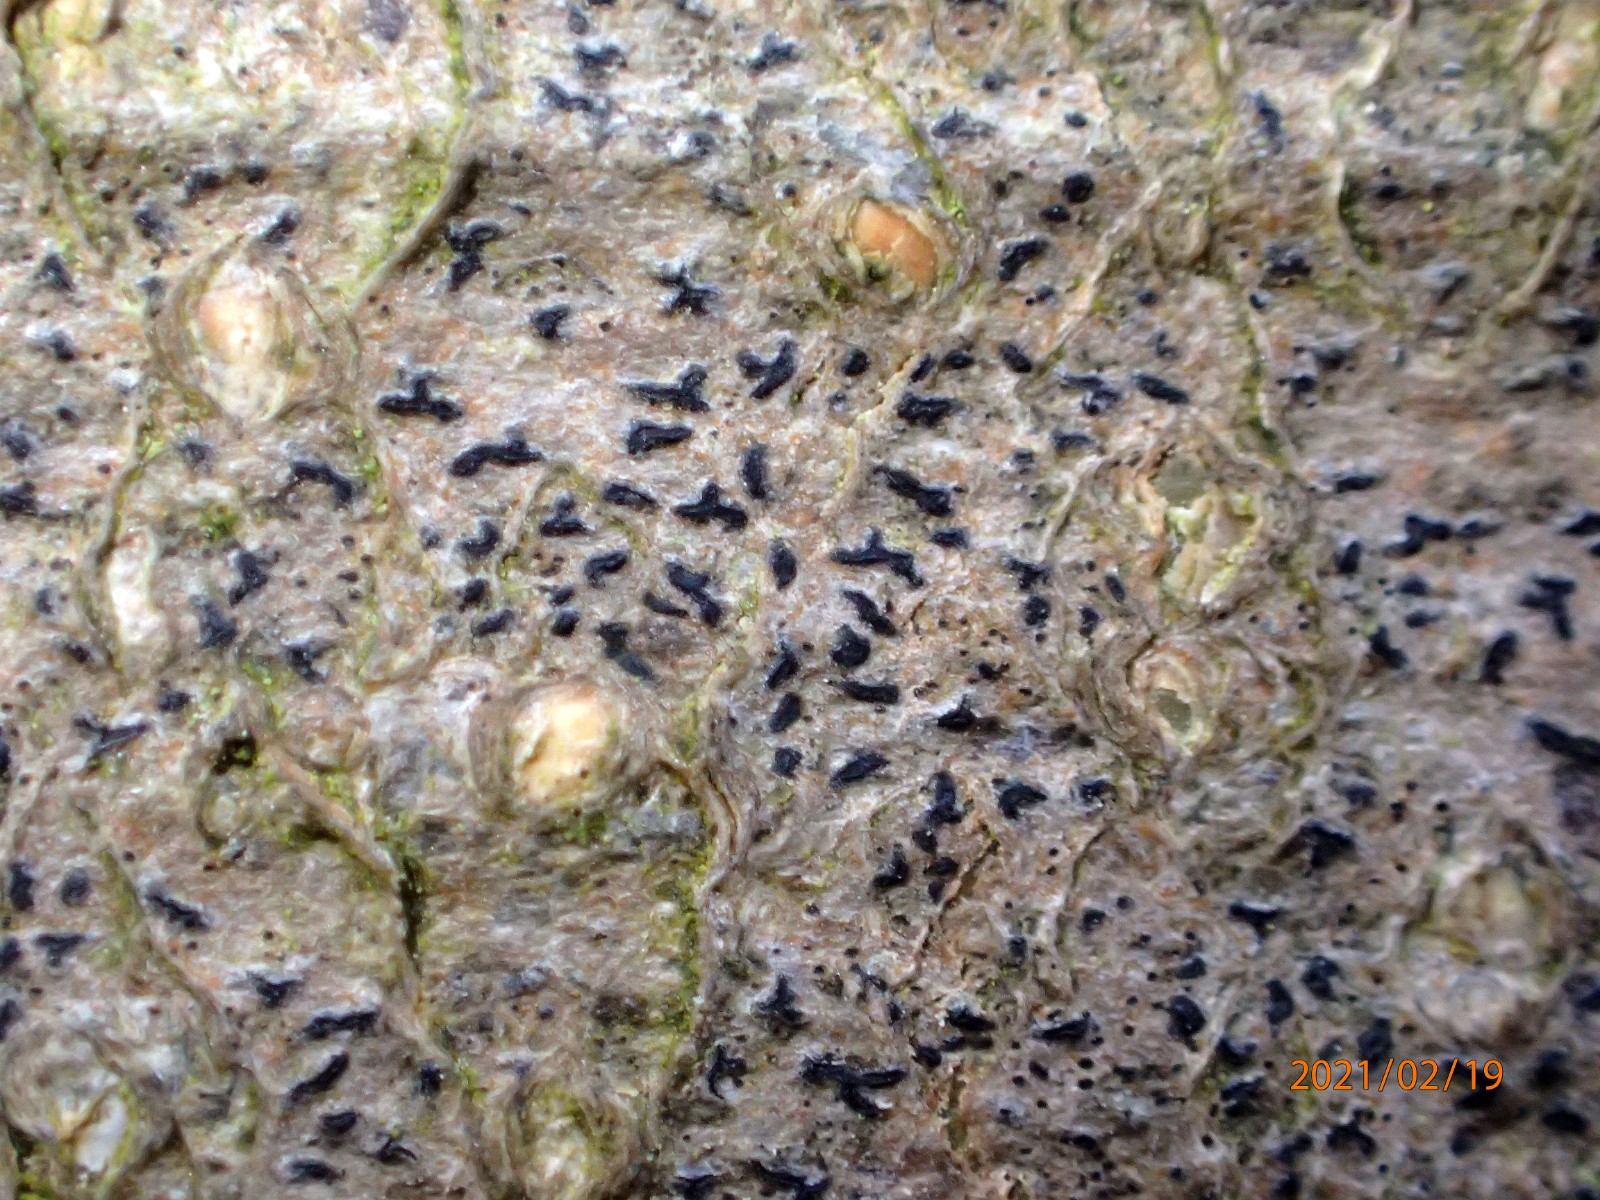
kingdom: Fungi
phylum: Ascomycota
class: Arthoniomycetes
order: Arthoniales
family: Opegraphaceae
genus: Opegrapha
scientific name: Opegrapha
